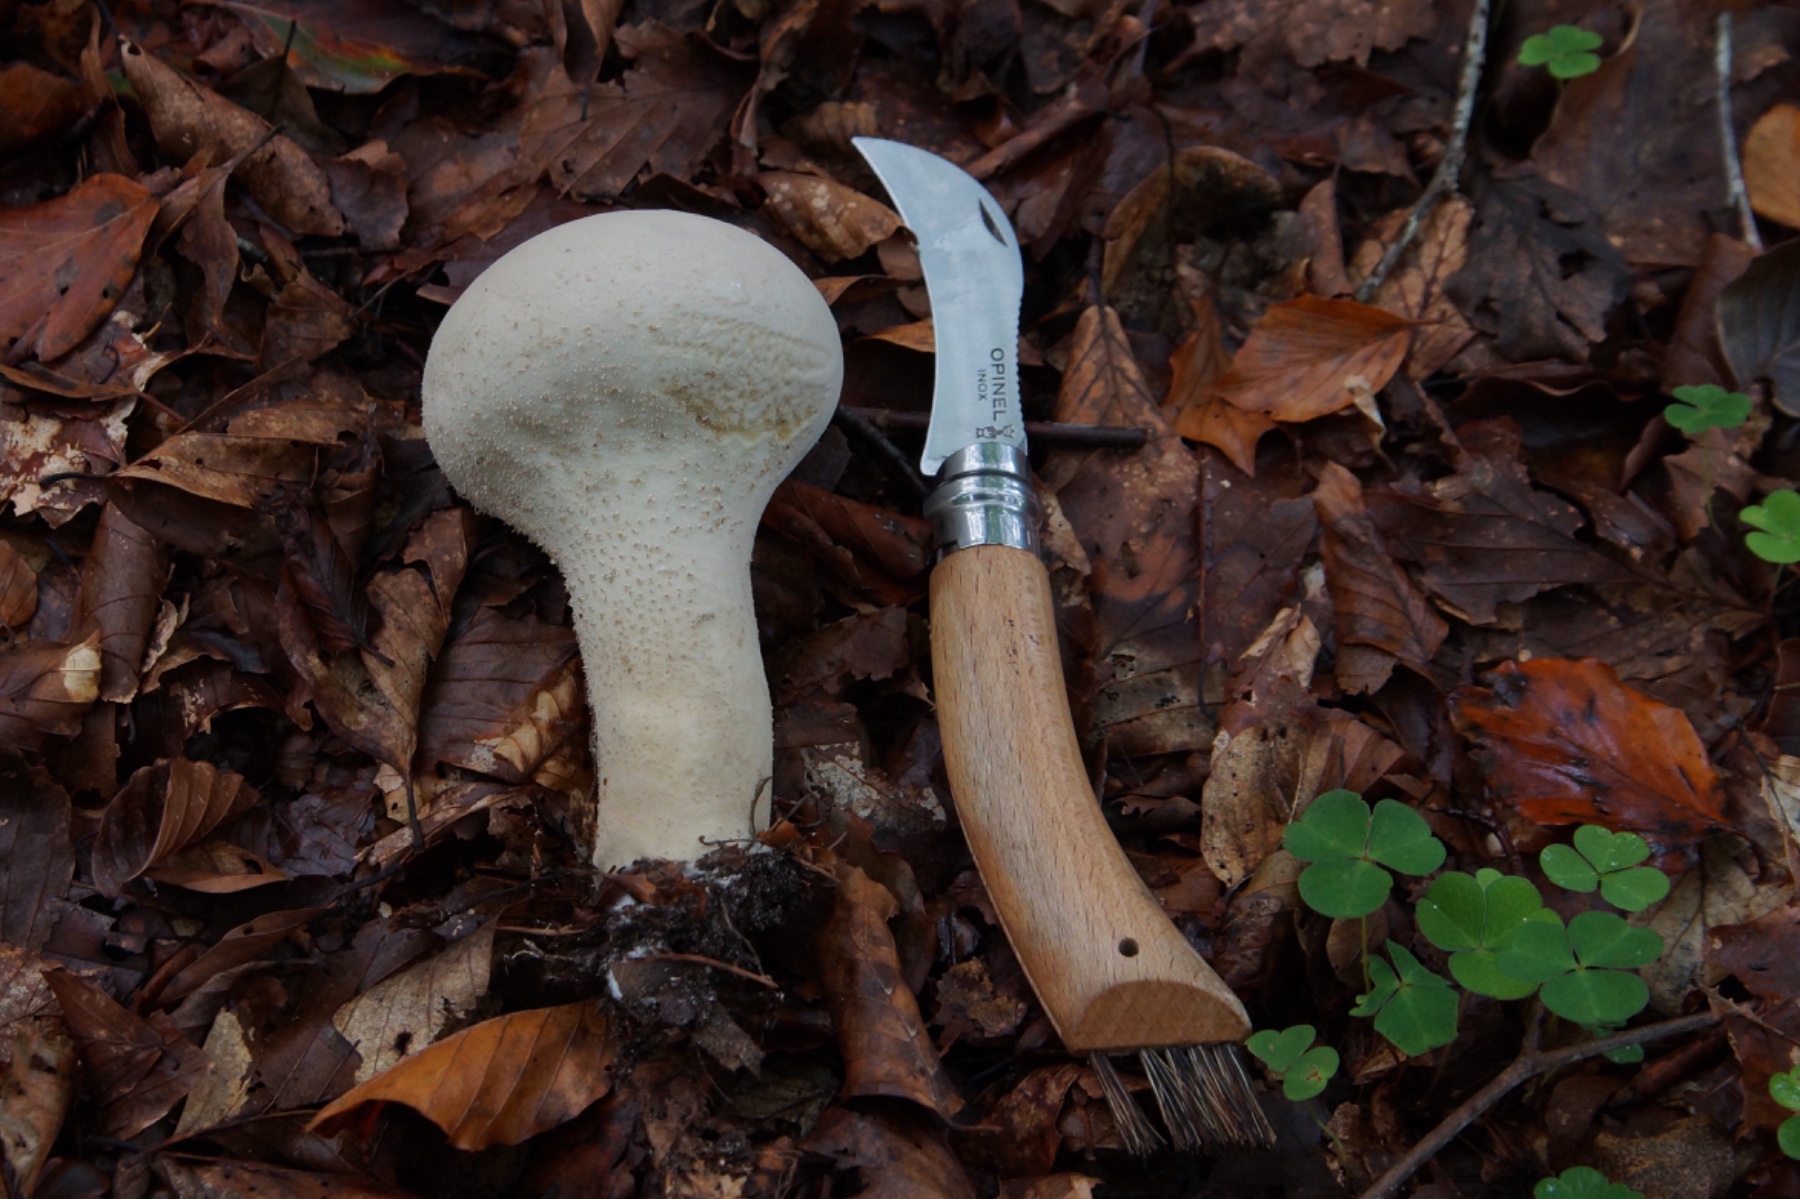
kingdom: Fungi
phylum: Basidiomycota
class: Agaricomycetes
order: Agaricales
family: Lycoperdaceae
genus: Lycoperdon
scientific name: Lycoperdon excipuliforme
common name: højstokket støvbold
